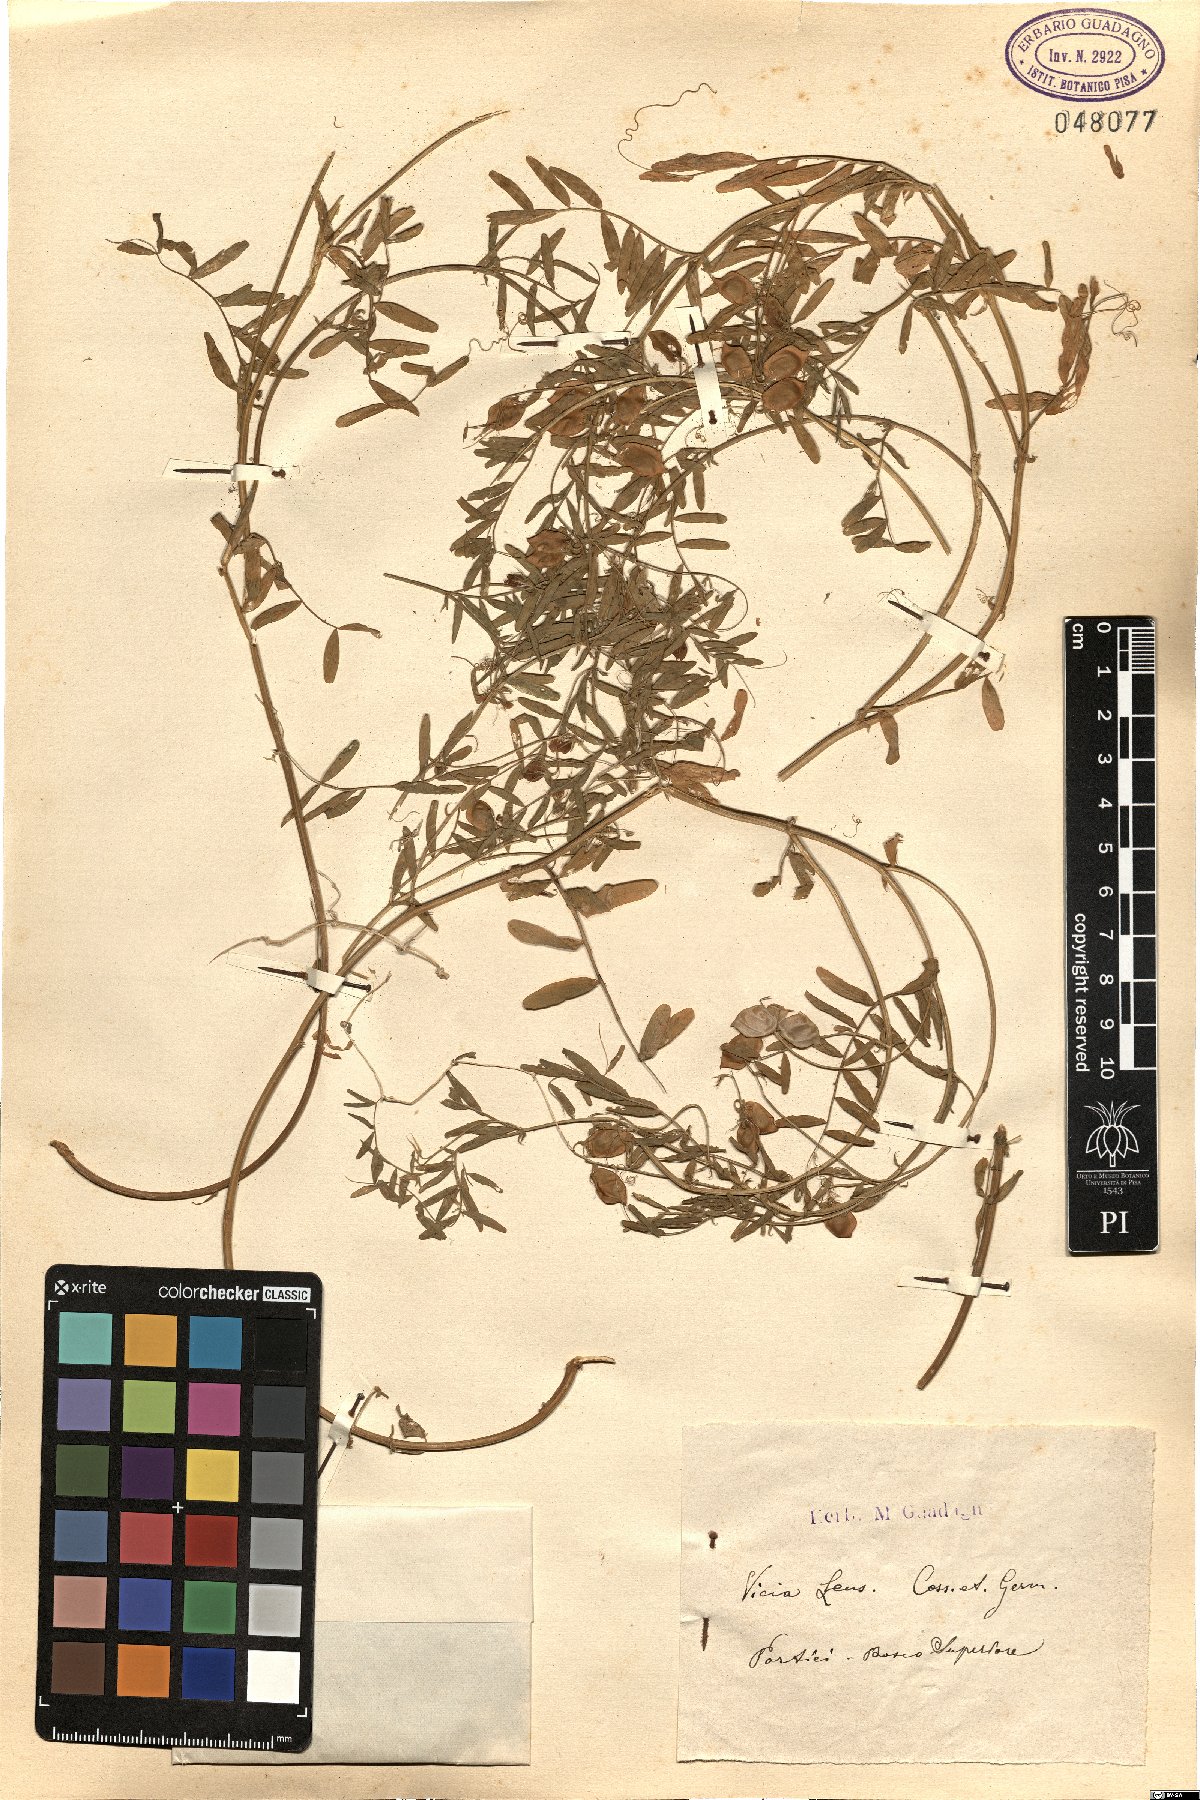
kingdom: Plantae
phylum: Tracheophyta
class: Magnoliopsida
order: Fabales
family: Fabaceae
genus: Vicia
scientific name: Vicia lens
